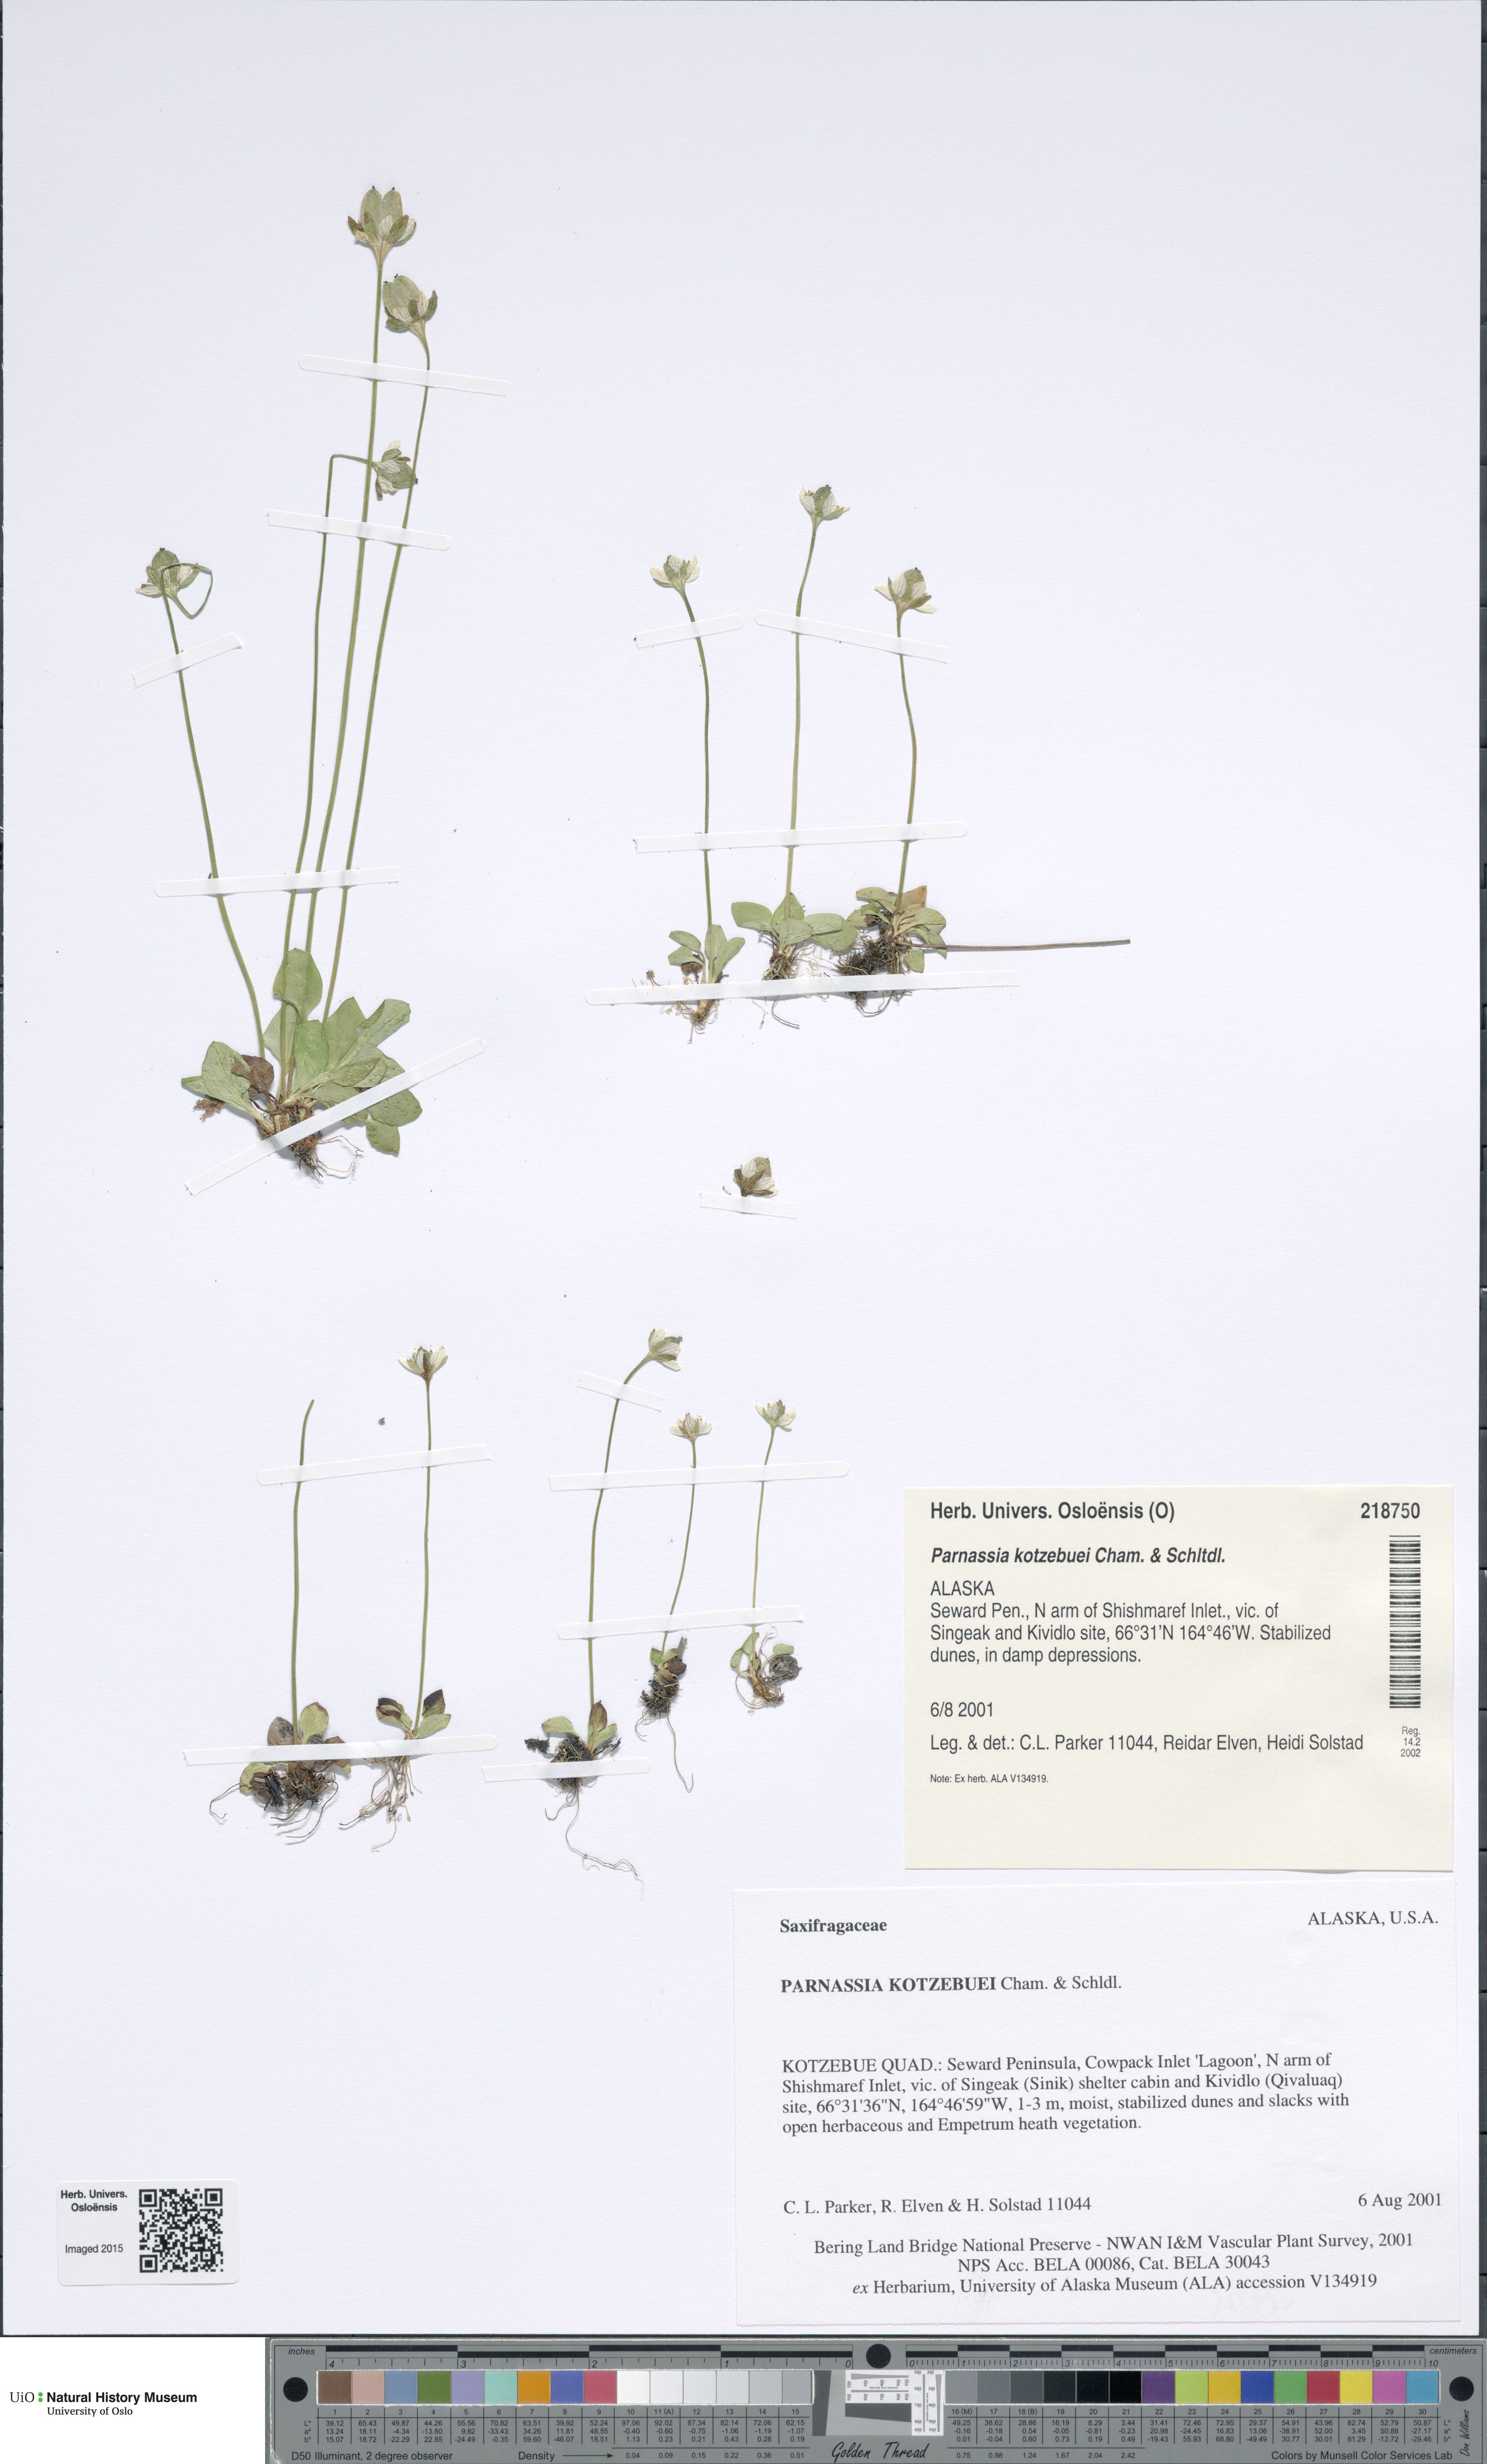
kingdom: Plantae
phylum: Tracheophyta
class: Magnoliopsida
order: Celastrales
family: Parnassiaceae
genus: Parnassia
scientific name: Parnassia kotzebuei
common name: Kotzebue's grass-of-parnassus
